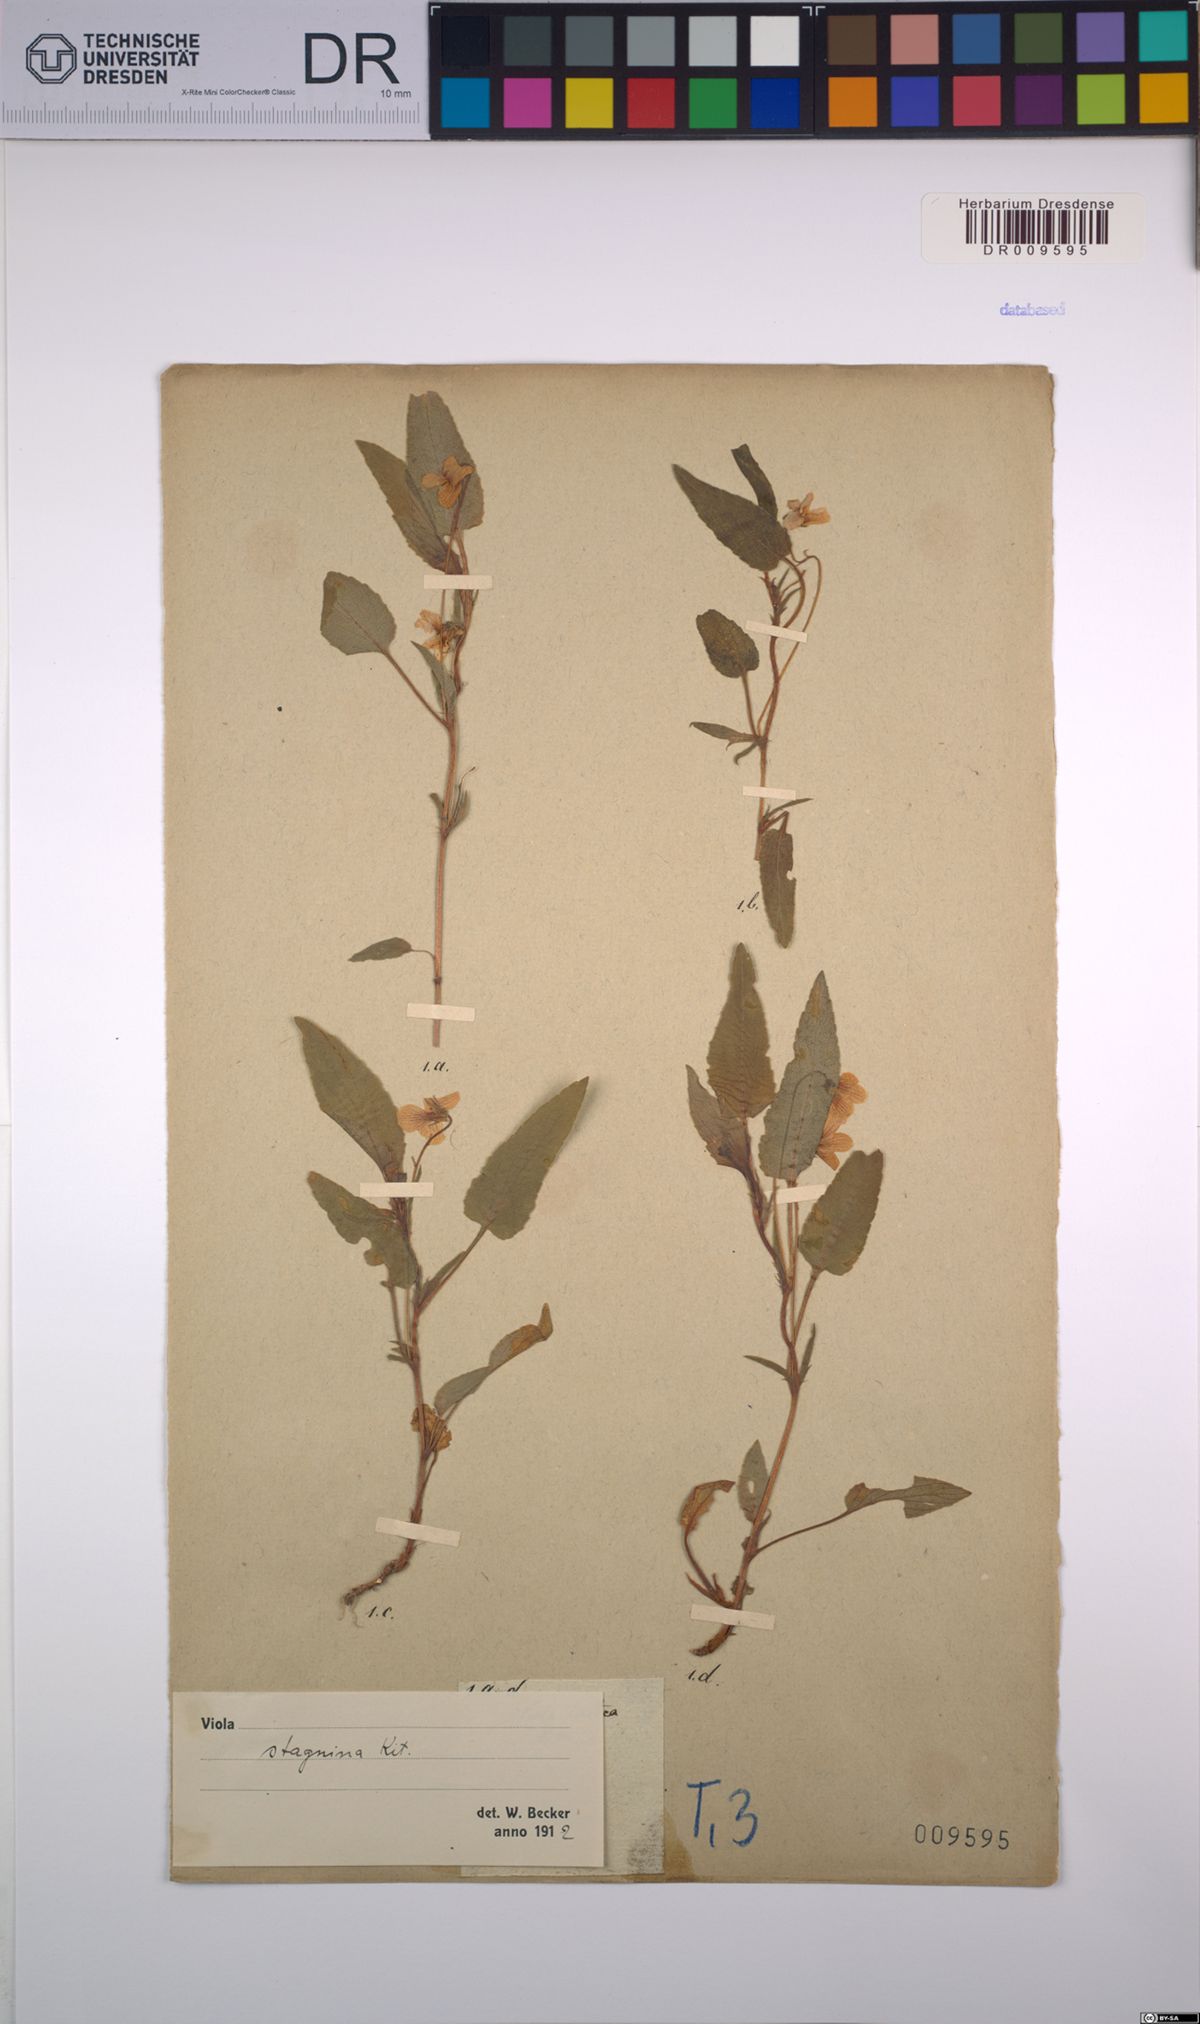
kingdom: Plantae
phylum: Tracheophyta
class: Magnoliopsida
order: Malpighiales
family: Violaceae
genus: Viola
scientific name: Viola stagnina
